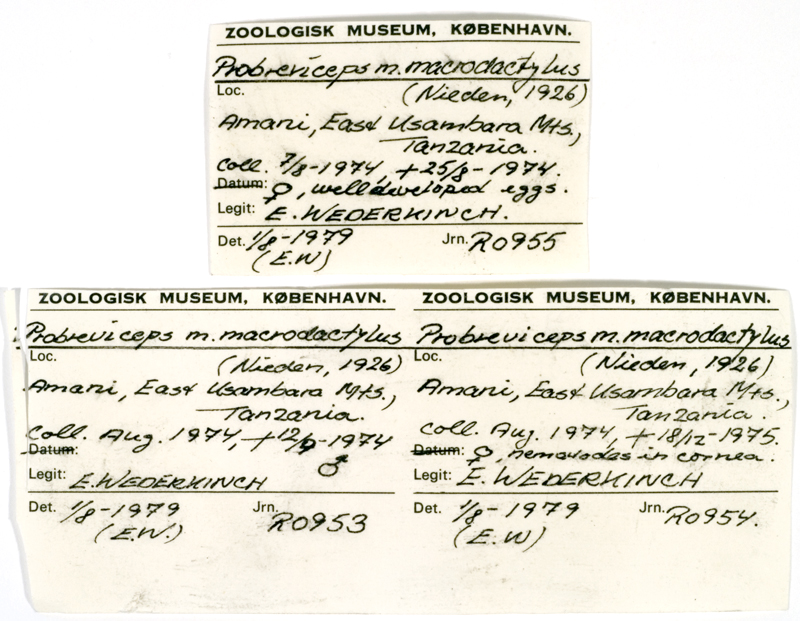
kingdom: Animalia
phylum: Chordata
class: Amphibia
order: Anura
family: Brevicipitidae
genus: Probreviceps
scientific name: Probreviceps macrodactylus
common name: Usambara big-fingered frog
